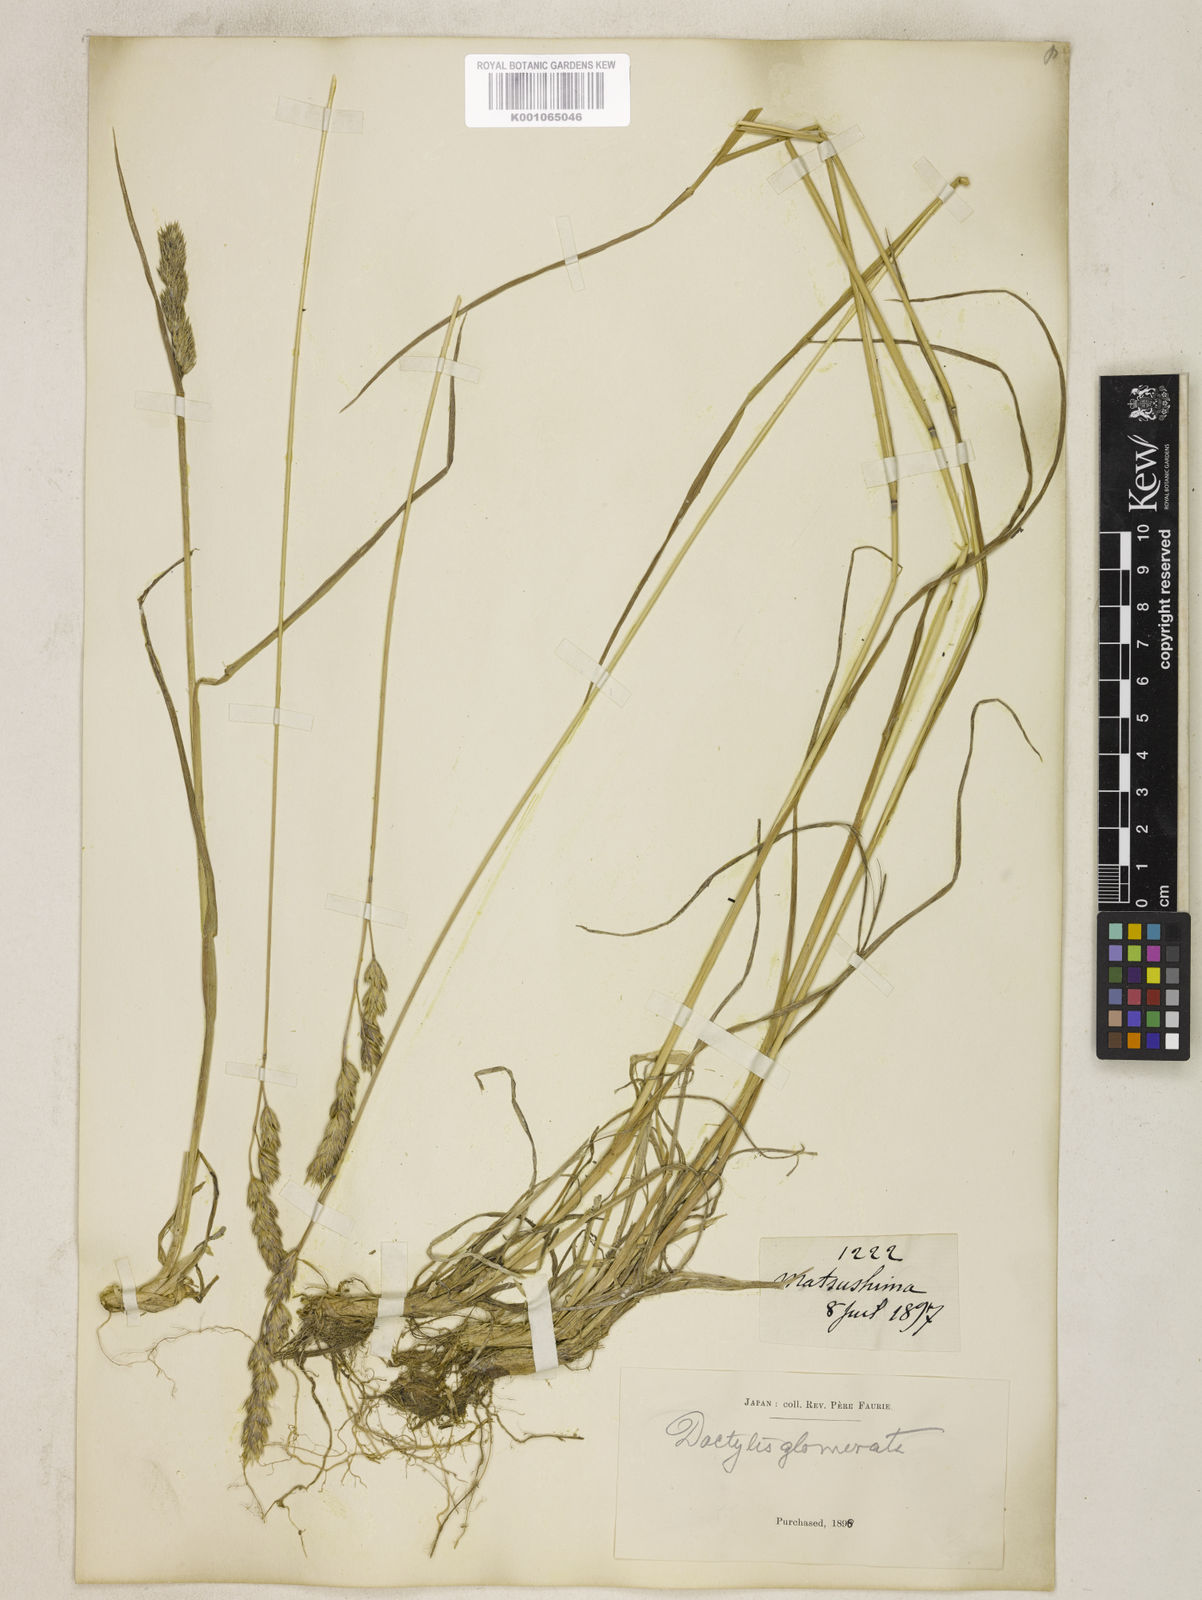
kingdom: Plantae
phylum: Tracheophyta
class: Liliopsida
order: Poales
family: Poaceae
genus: Dactylis
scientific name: Dactylis glomerata
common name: Orchardgrass
